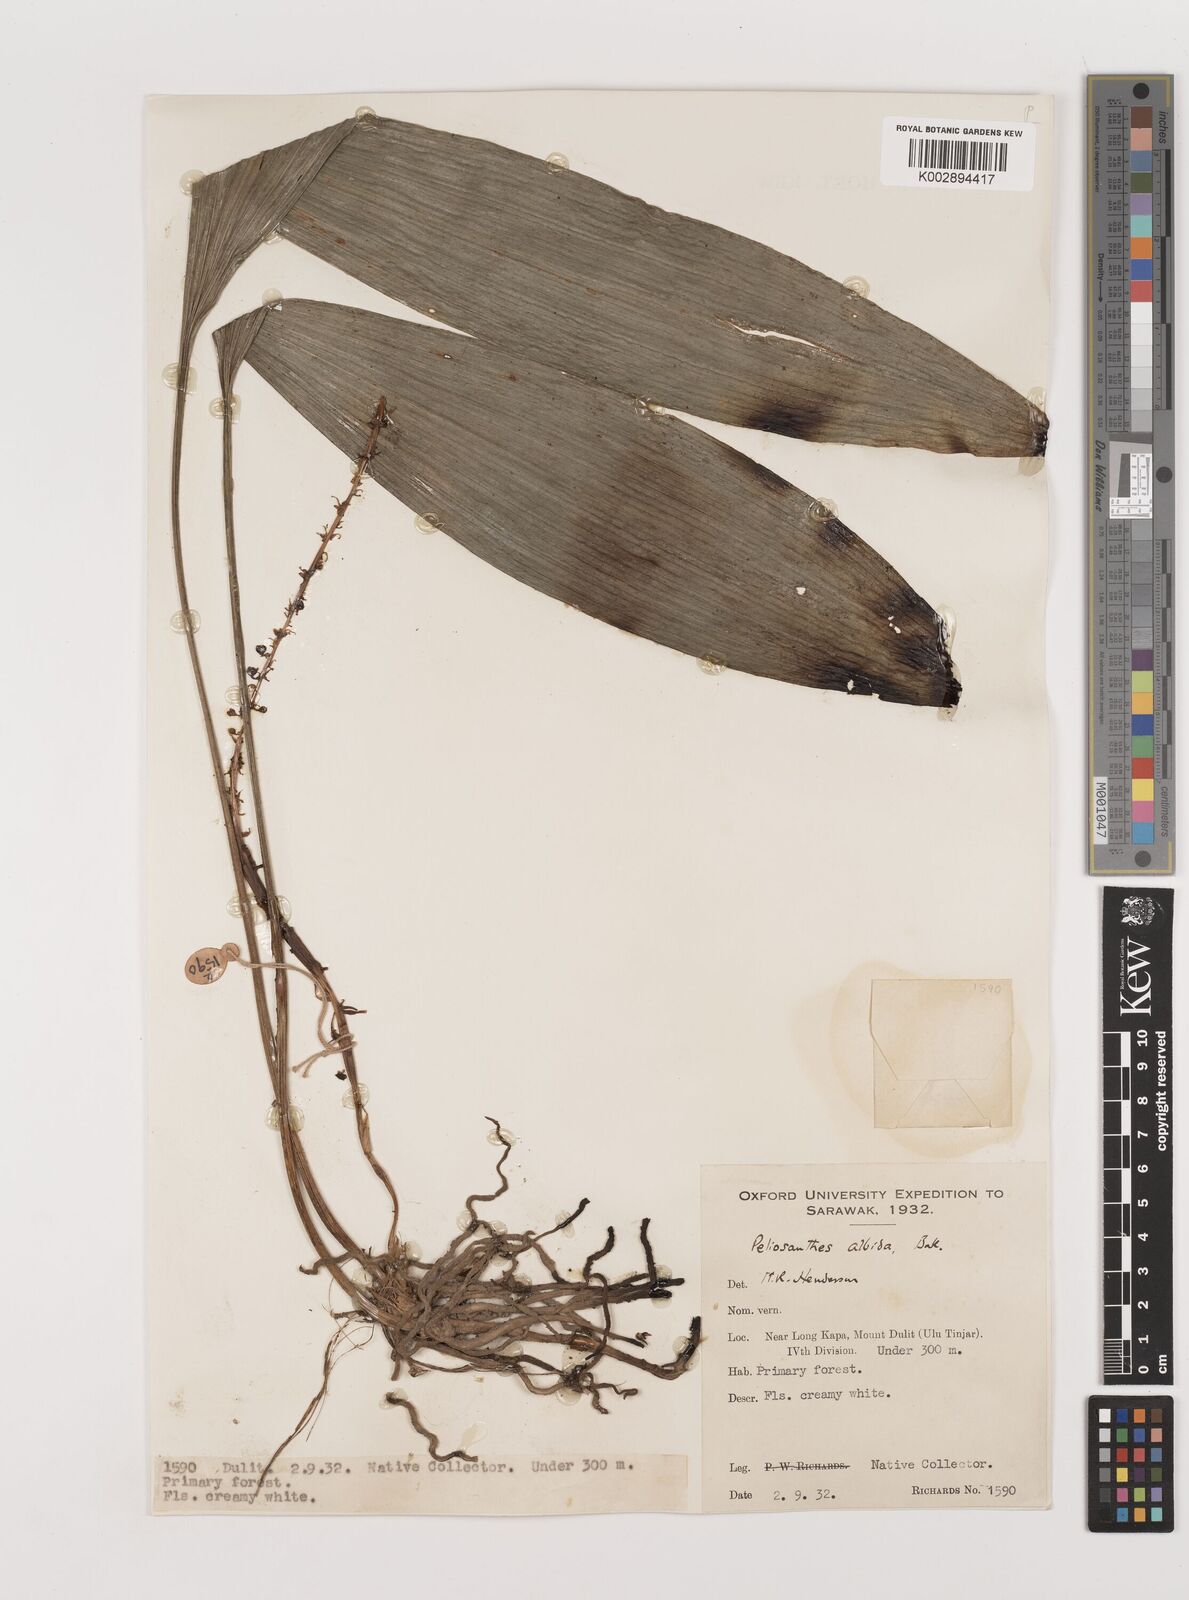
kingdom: Plantae
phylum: Tracheophyta
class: Liliopsida
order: Asparagales
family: Asparagaceae
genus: Peliosanthes
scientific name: Peliosanthes teta
